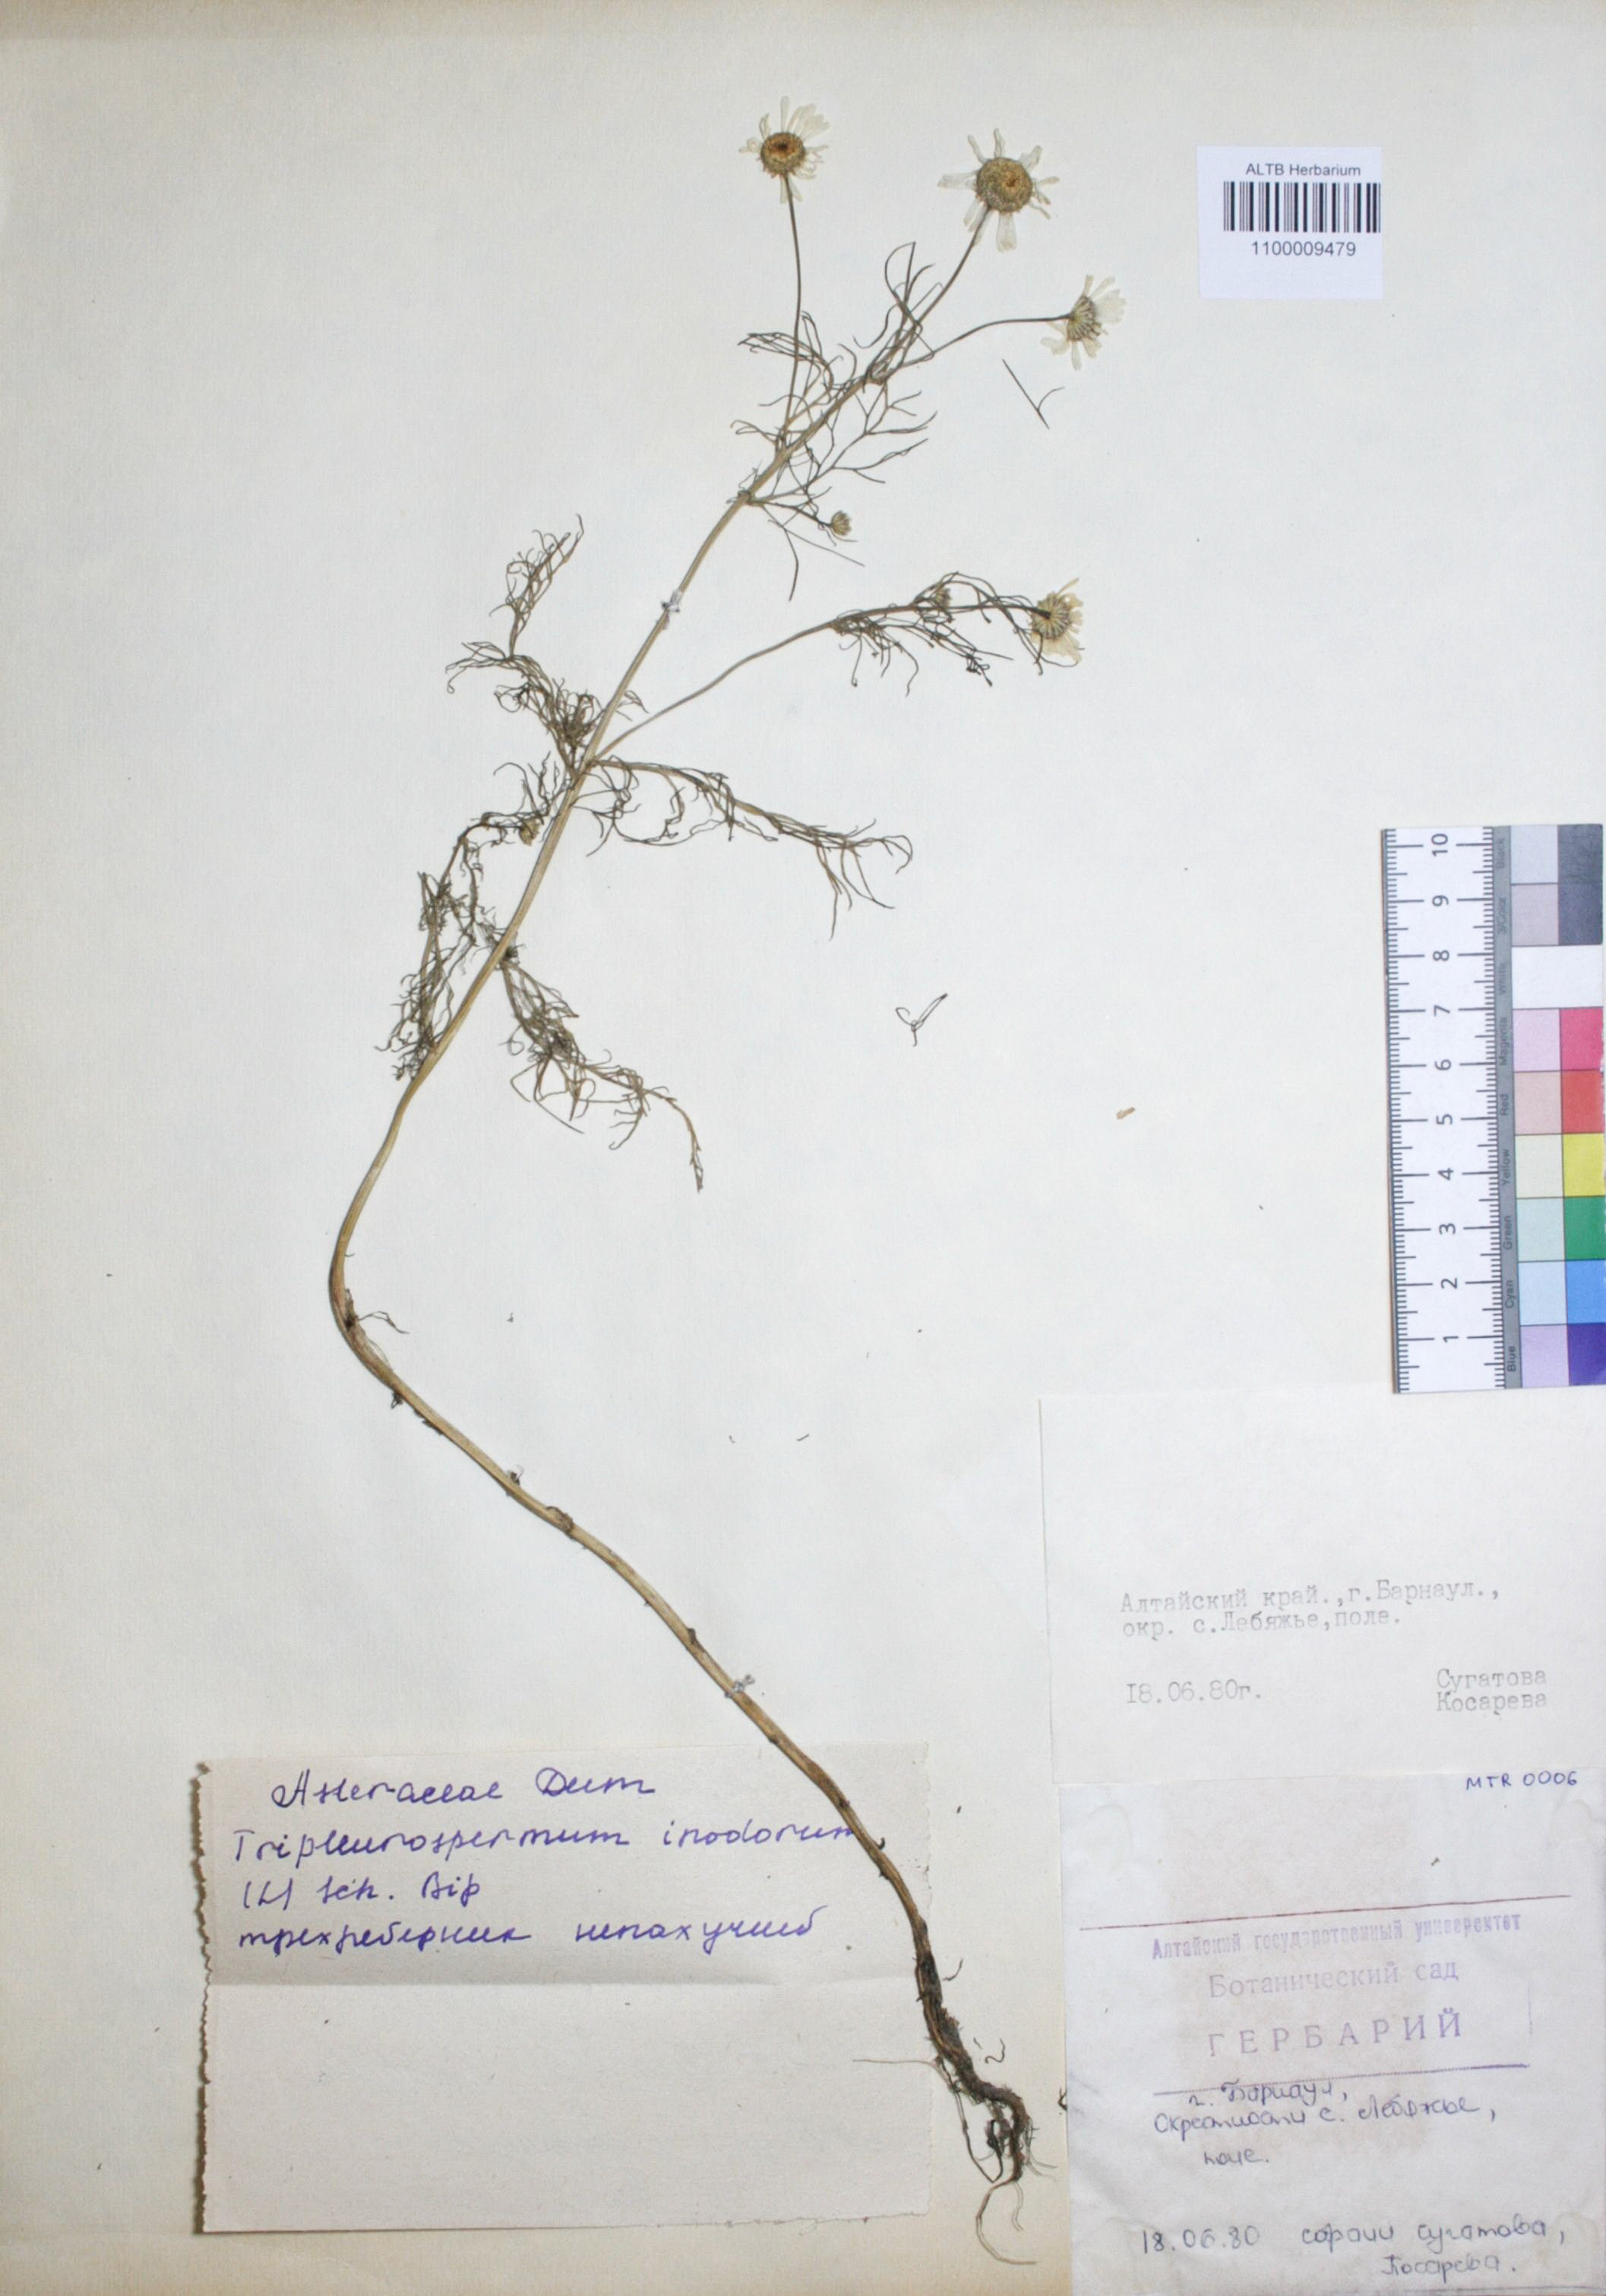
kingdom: Plantae
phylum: Tracheophyta
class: Magnoliopsida
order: Asterales
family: Asteraceae
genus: Tripleurospermum
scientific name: Tripleurospermum inodorum
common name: Scentless mayweed
